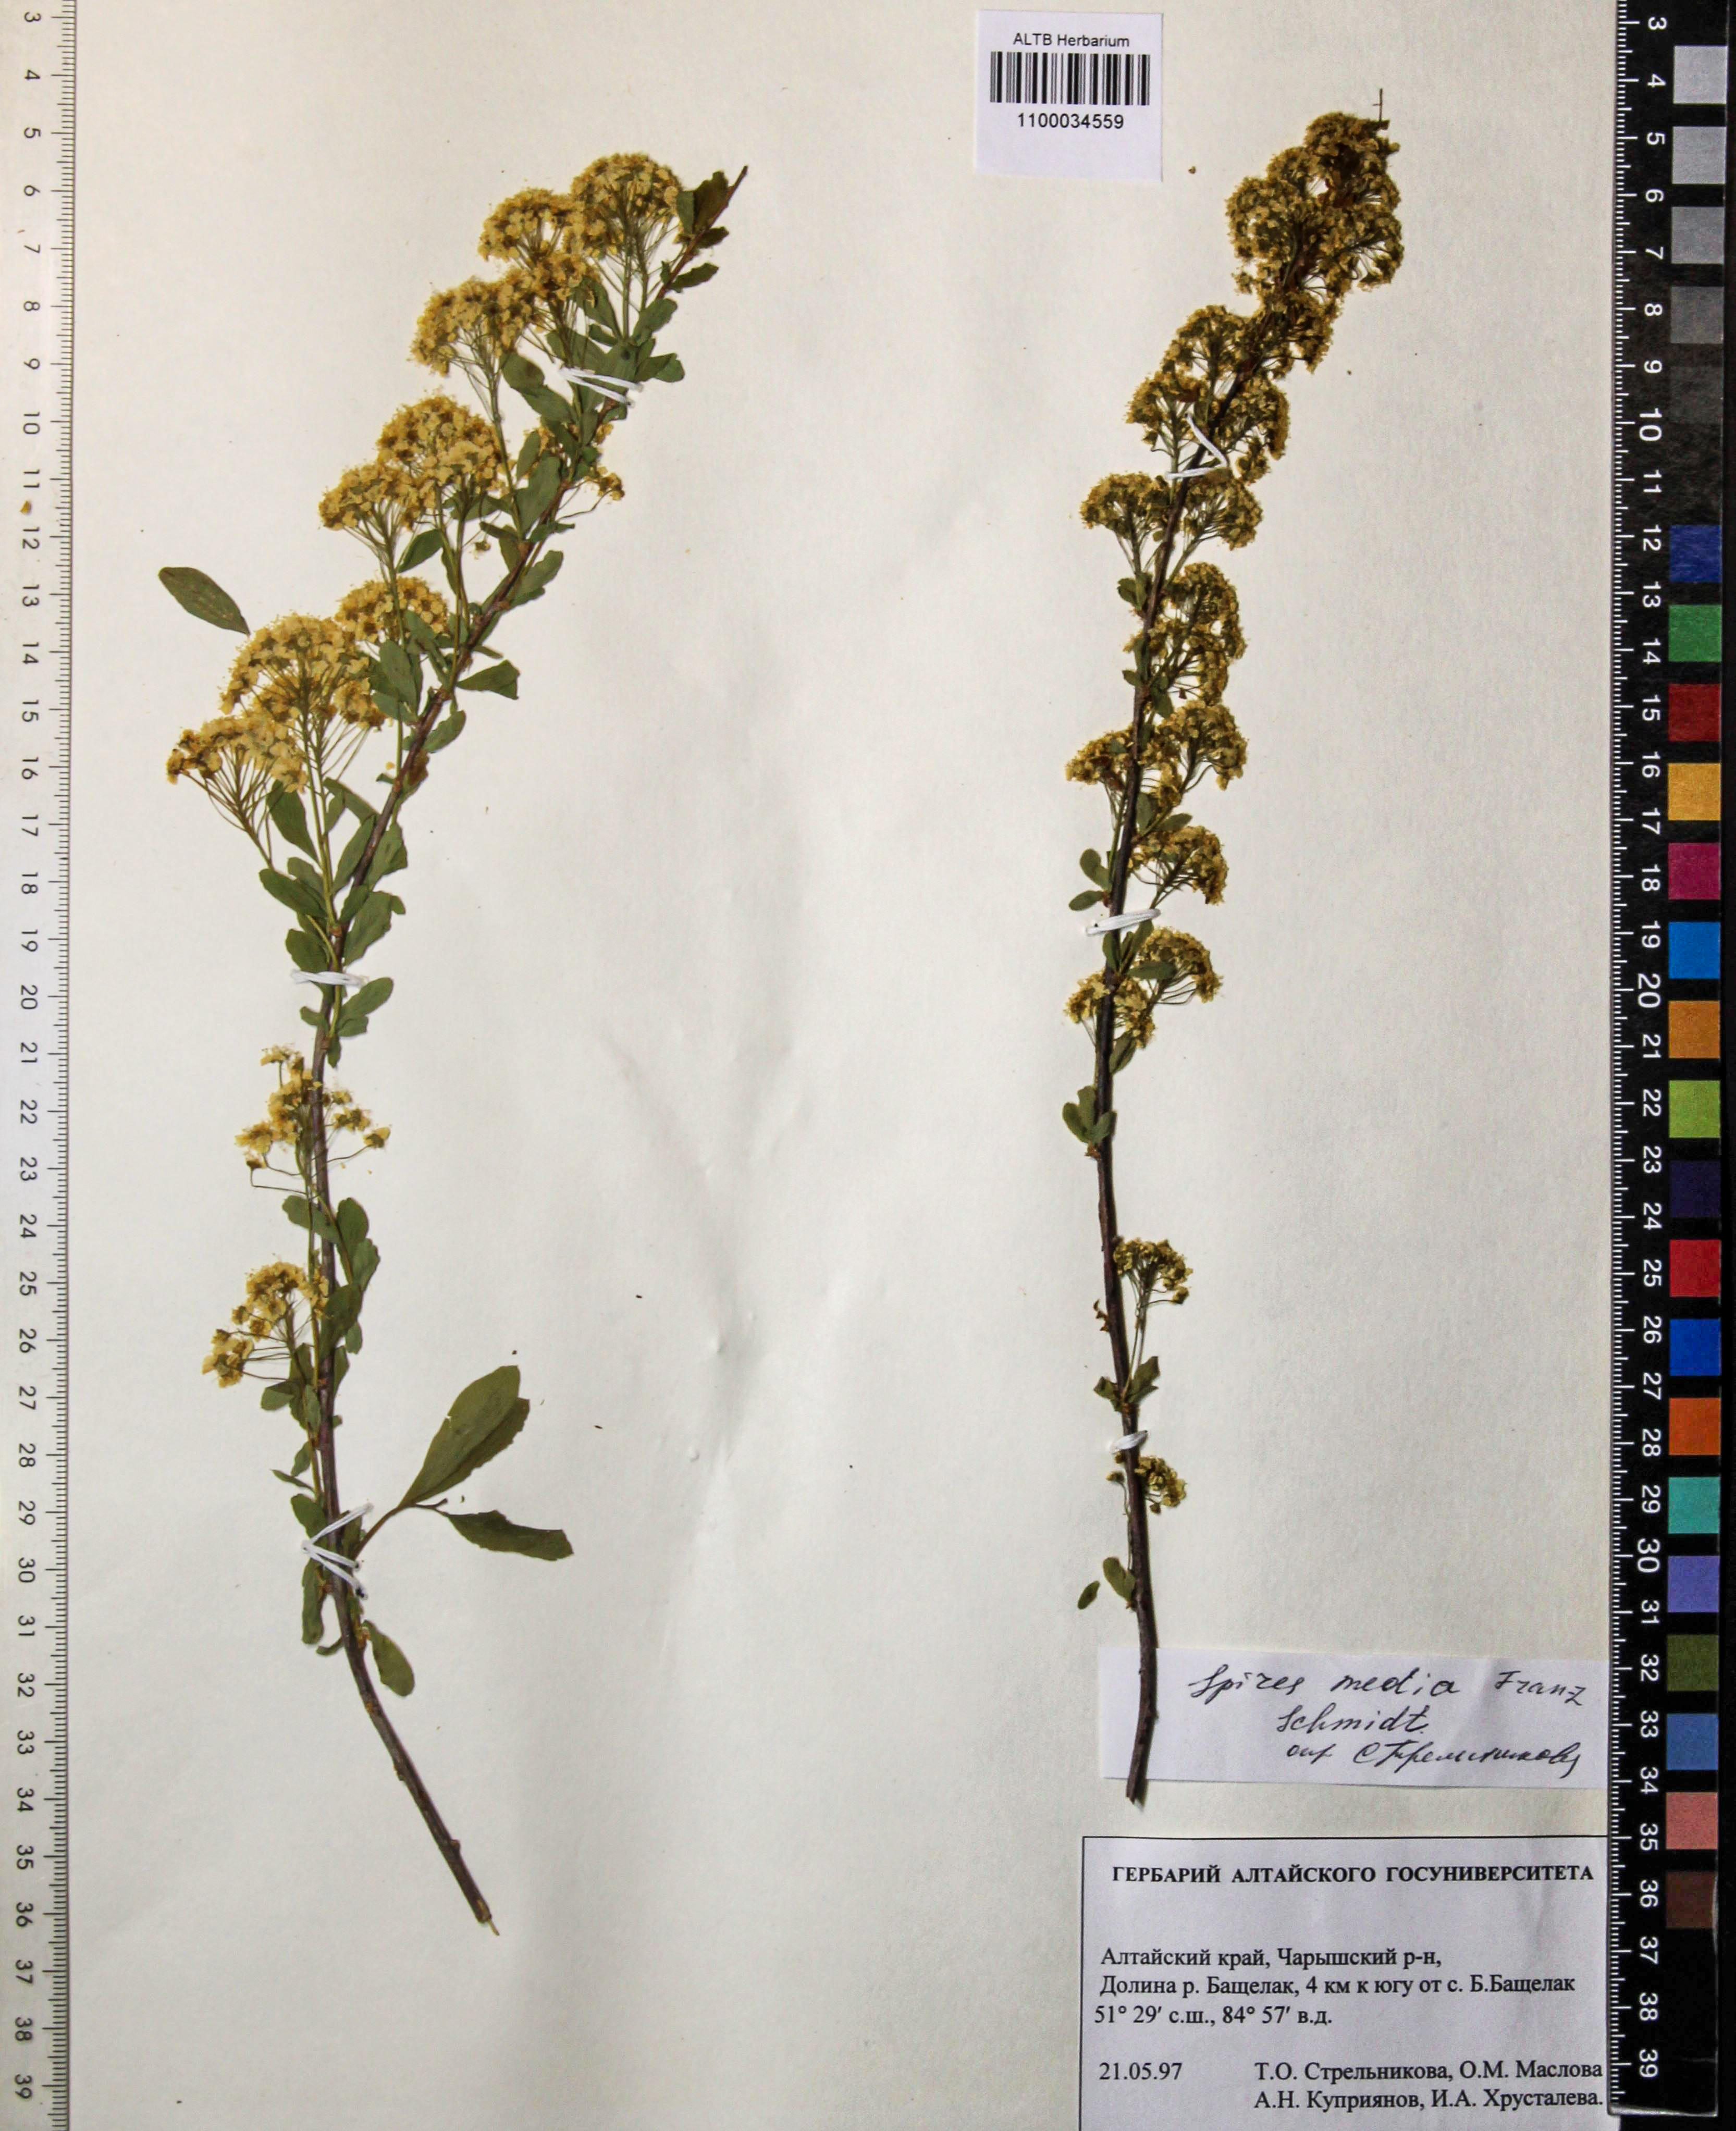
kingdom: Plantae
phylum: Tracheophyta
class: Magnoliopsida
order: Rosales
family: Rosaceae
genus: Spiraea
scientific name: Spiraea media
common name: Russian spiraea
